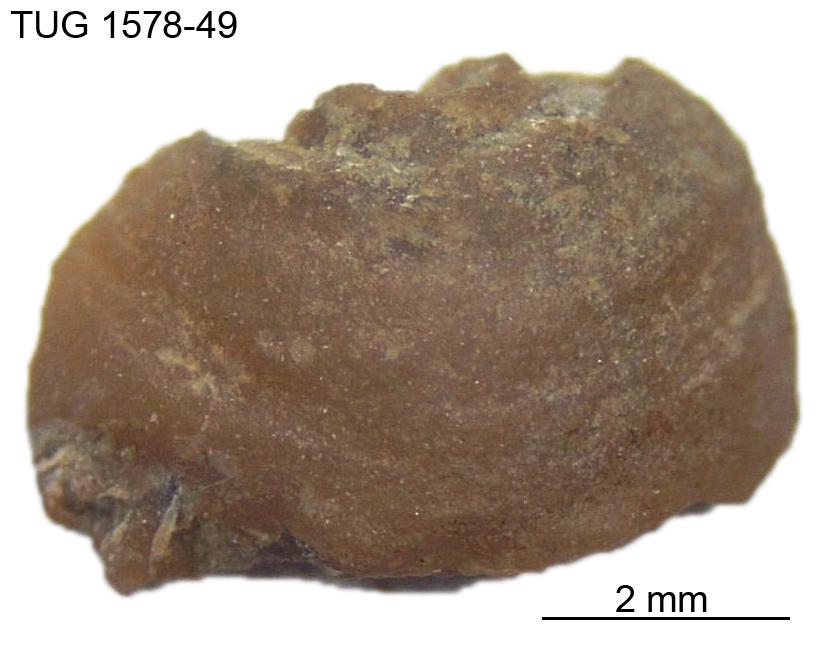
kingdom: Animalia
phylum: Mollusca
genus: Anticalyptraea
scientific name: Anticalyptraea westergaardi
